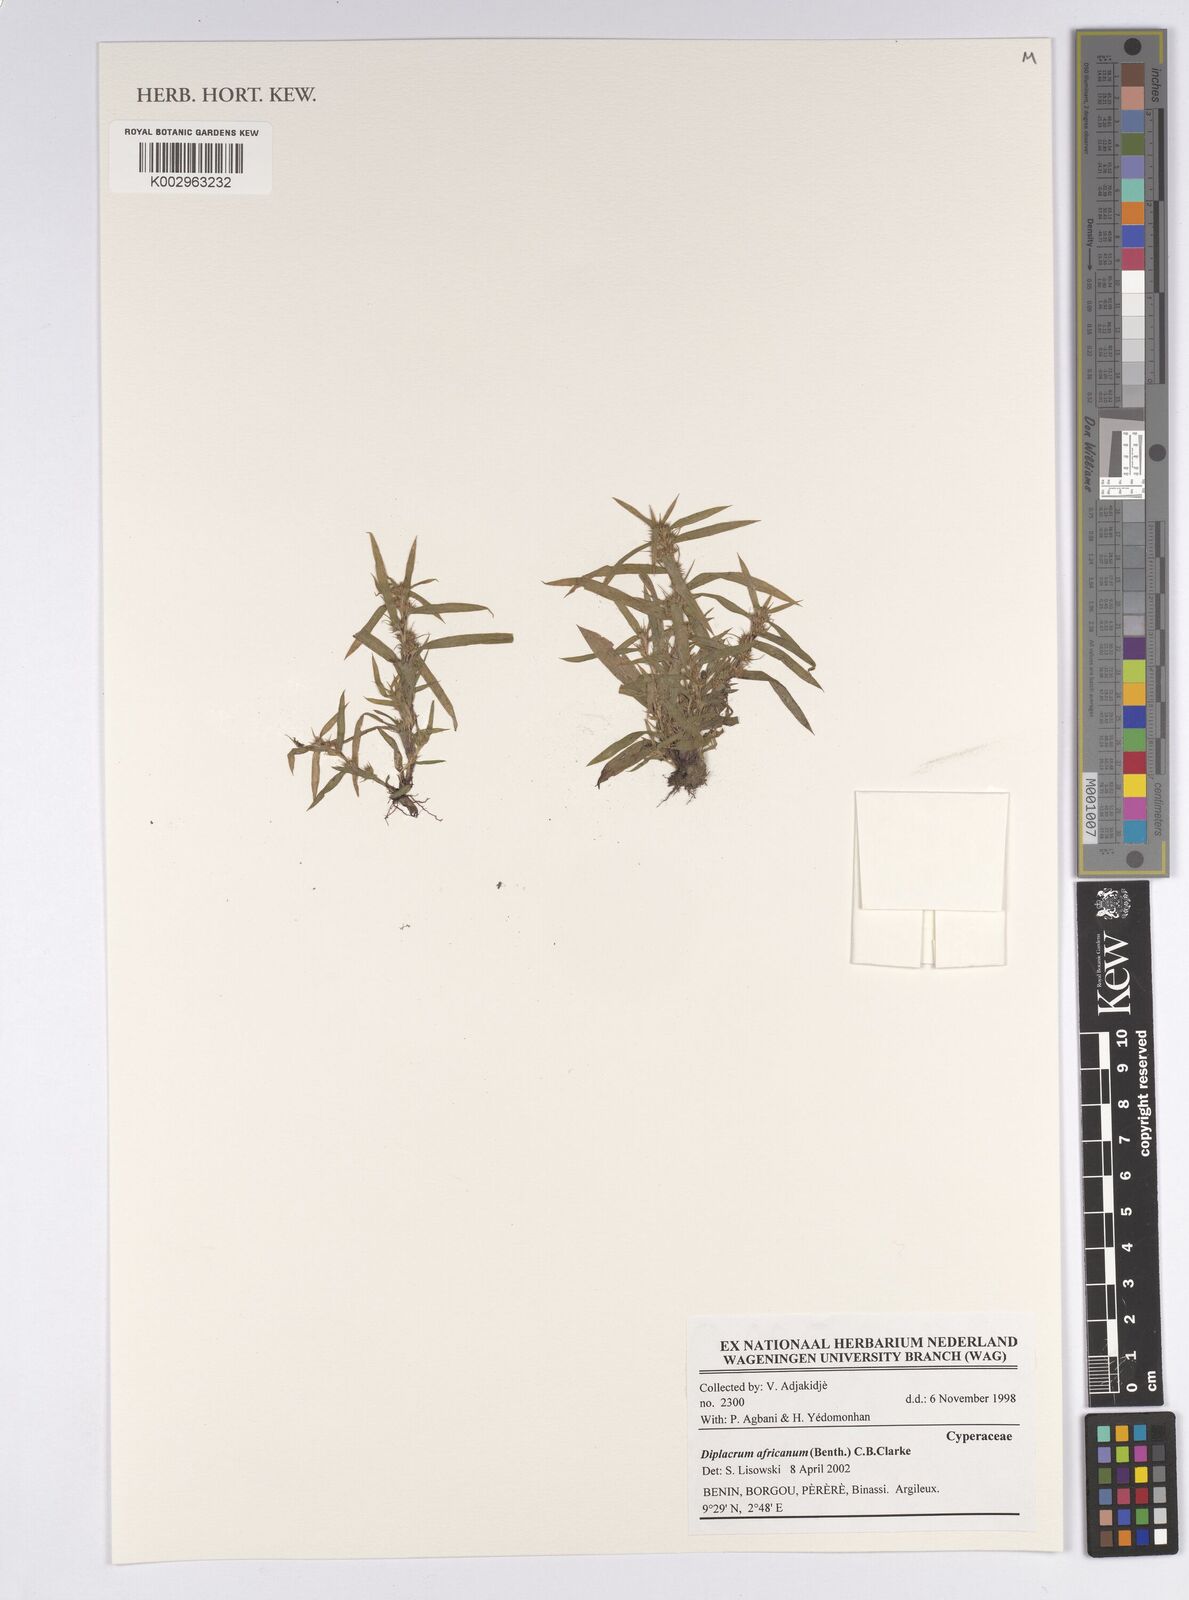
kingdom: Plantae
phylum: Tracheophyta
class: Liliopsida
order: Poales
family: Cyperaceae
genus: Diplacrum
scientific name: Diplacrum africanum
